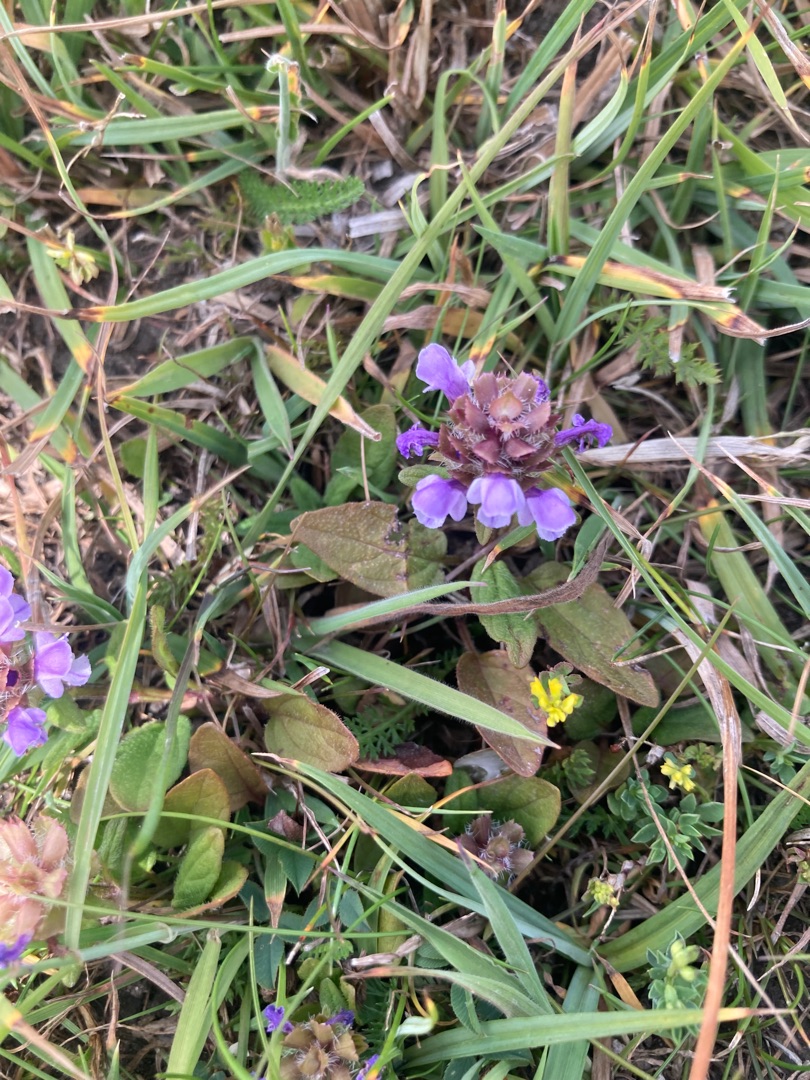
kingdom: Plantae
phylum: Tracheophyta
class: Magnoliopsida
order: Lamiales
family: Lamiaceae
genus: Prunella
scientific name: Prunella vulgaris
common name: Almindelig brunelle
